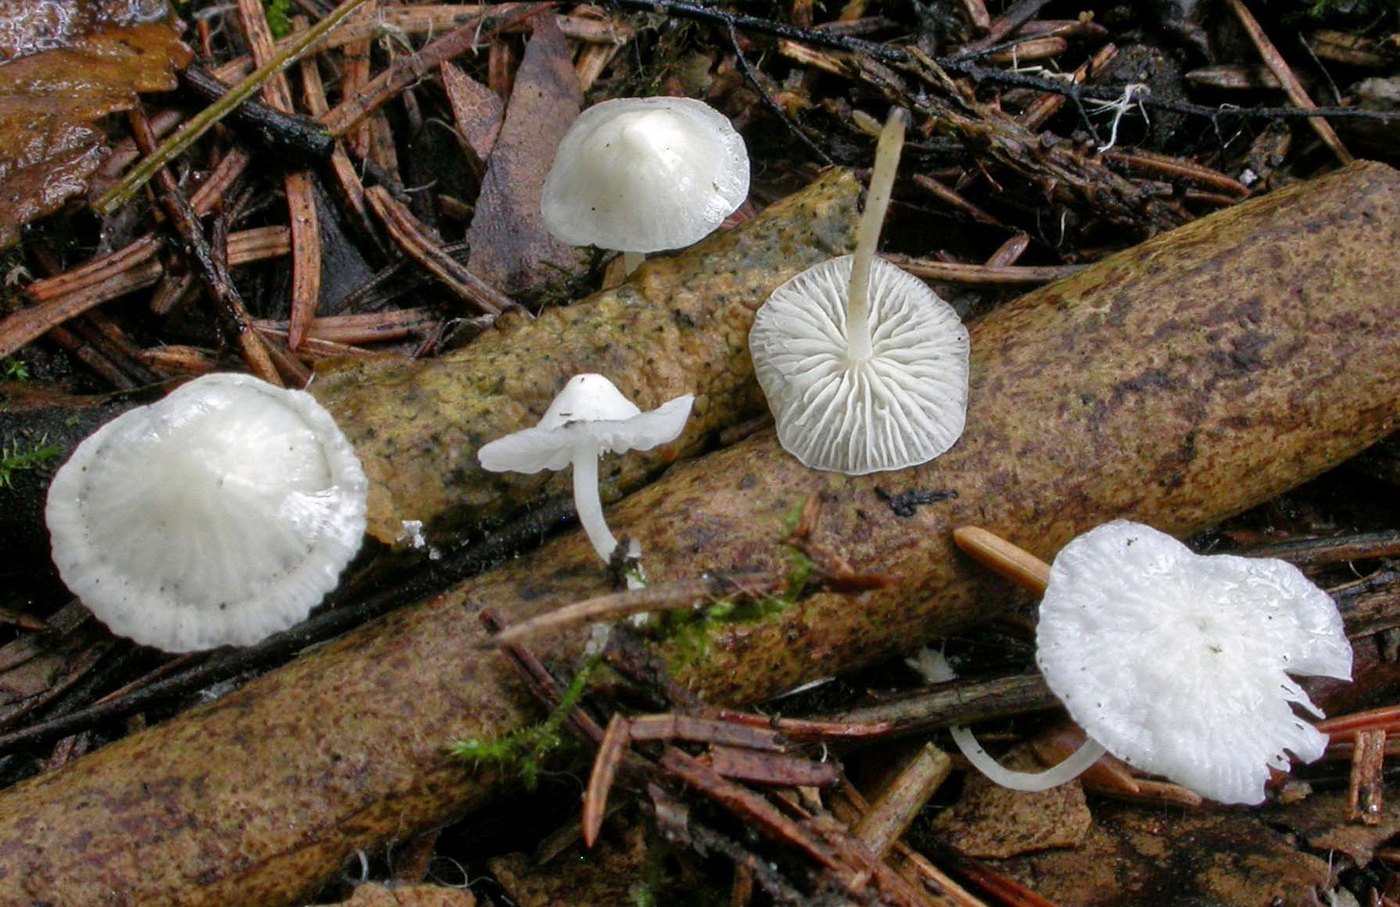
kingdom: Fungi
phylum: Basidiomycota
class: Agaricomycetes
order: Agaricales
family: Mycenaceae
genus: Hemimycena
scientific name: Hemimycena lactea
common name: mælkehvid huesvamp
